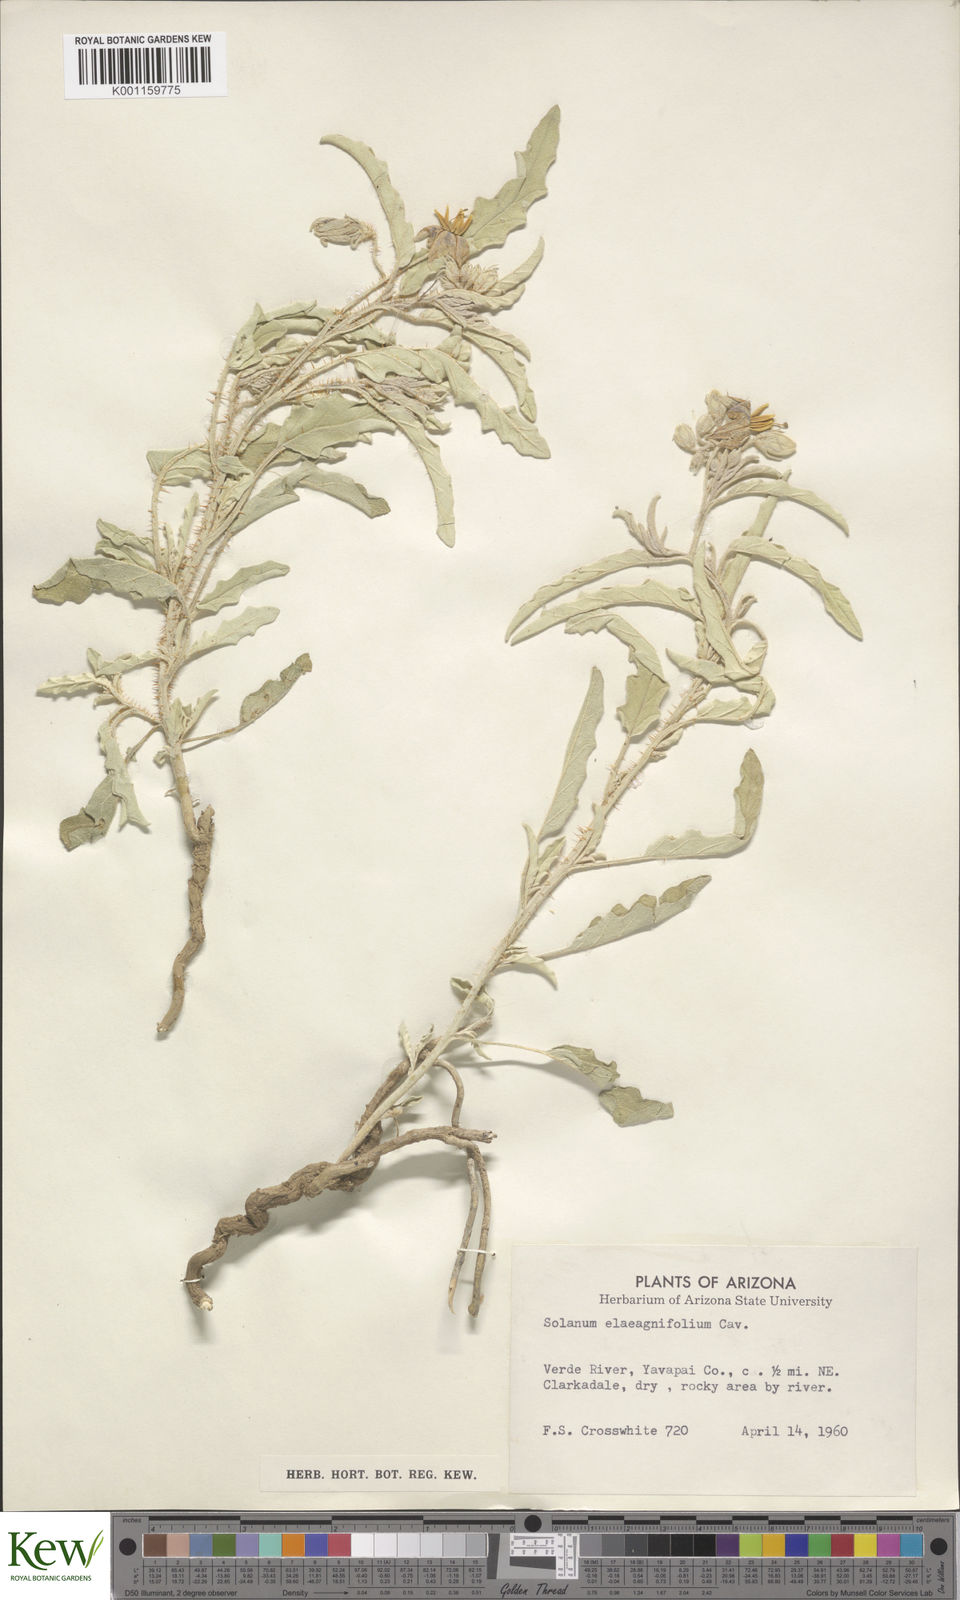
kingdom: Plantae
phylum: Tracheophyta
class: Magnoliopsida
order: Solanales
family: Solanaceae
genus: Solanum
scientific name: Solanum
